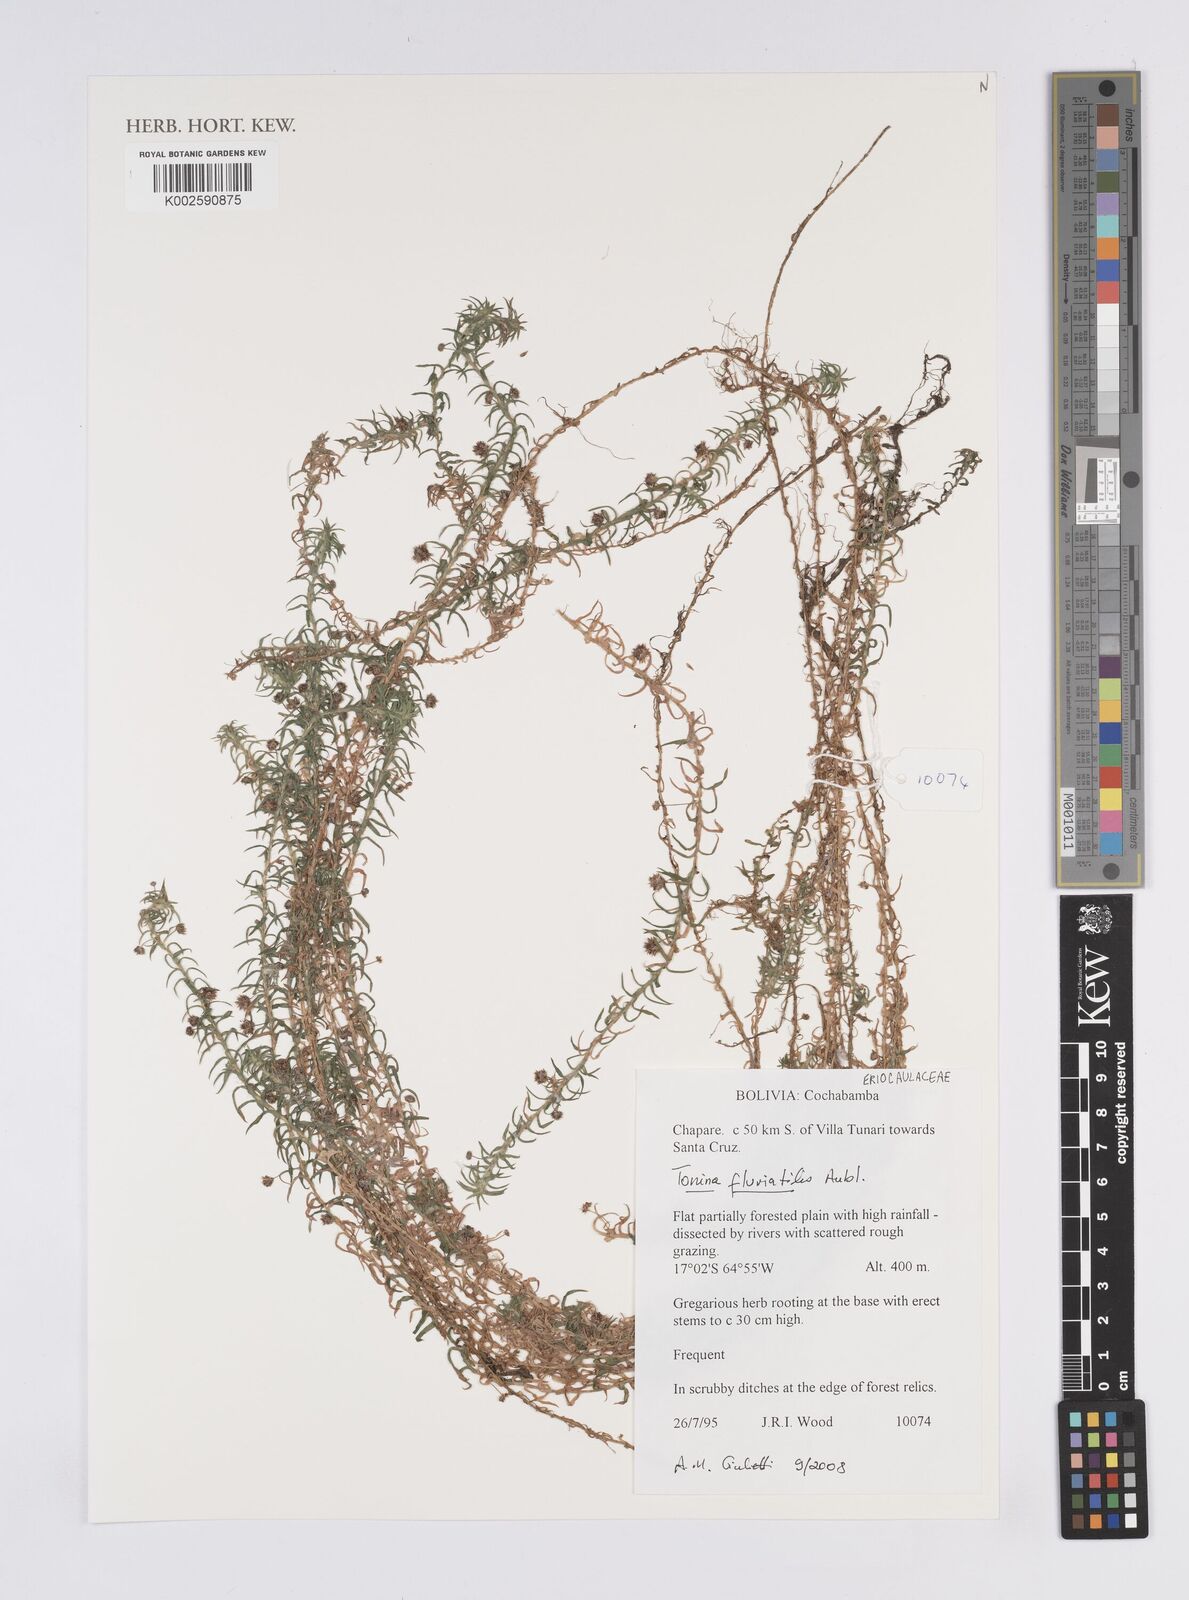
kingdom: Plantae
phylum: Tracheophyta
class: Liliopsida
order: Poales
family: Eriocaulaceae
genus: Paepalanthus
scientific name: Paepalanthus fluviatilis
